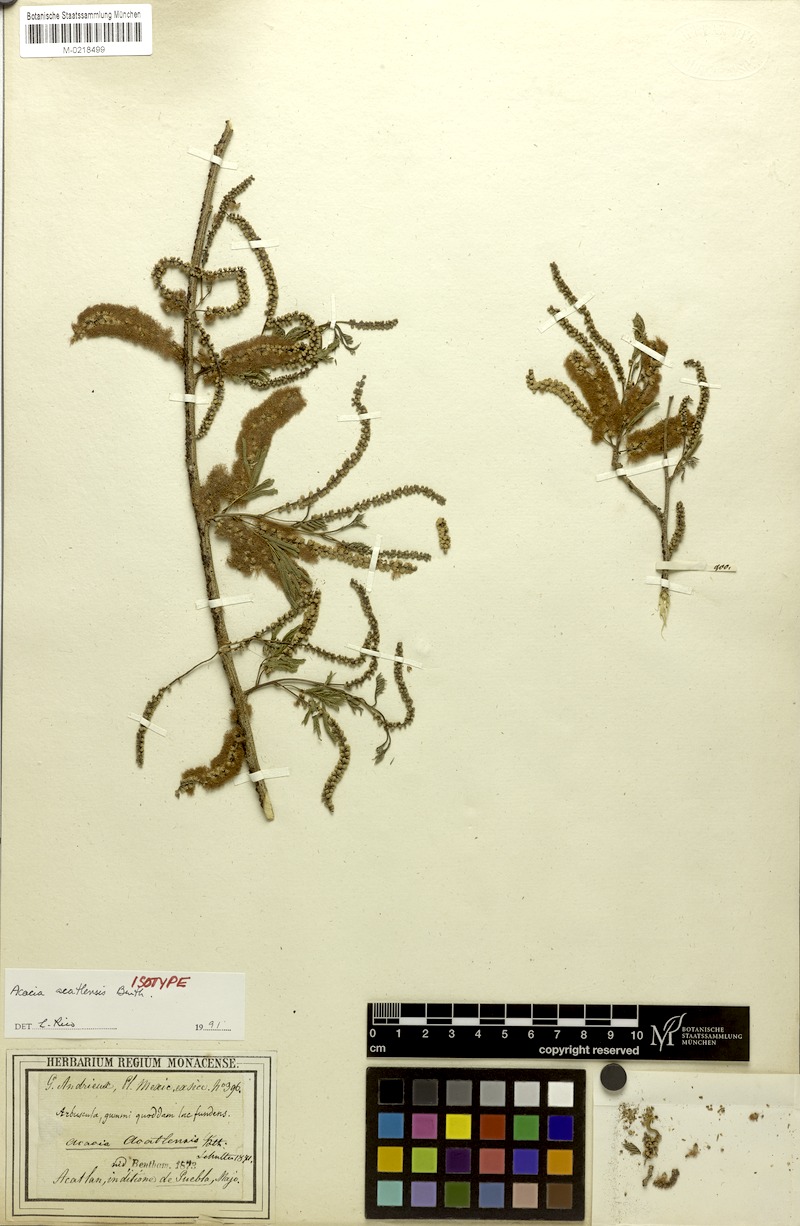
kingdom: Plantae
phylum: Tracheophyta
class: Magnoliopsida
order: Fabales
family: Fabaceae
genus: Mariosousa
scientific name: Mariosousa acatlensis
